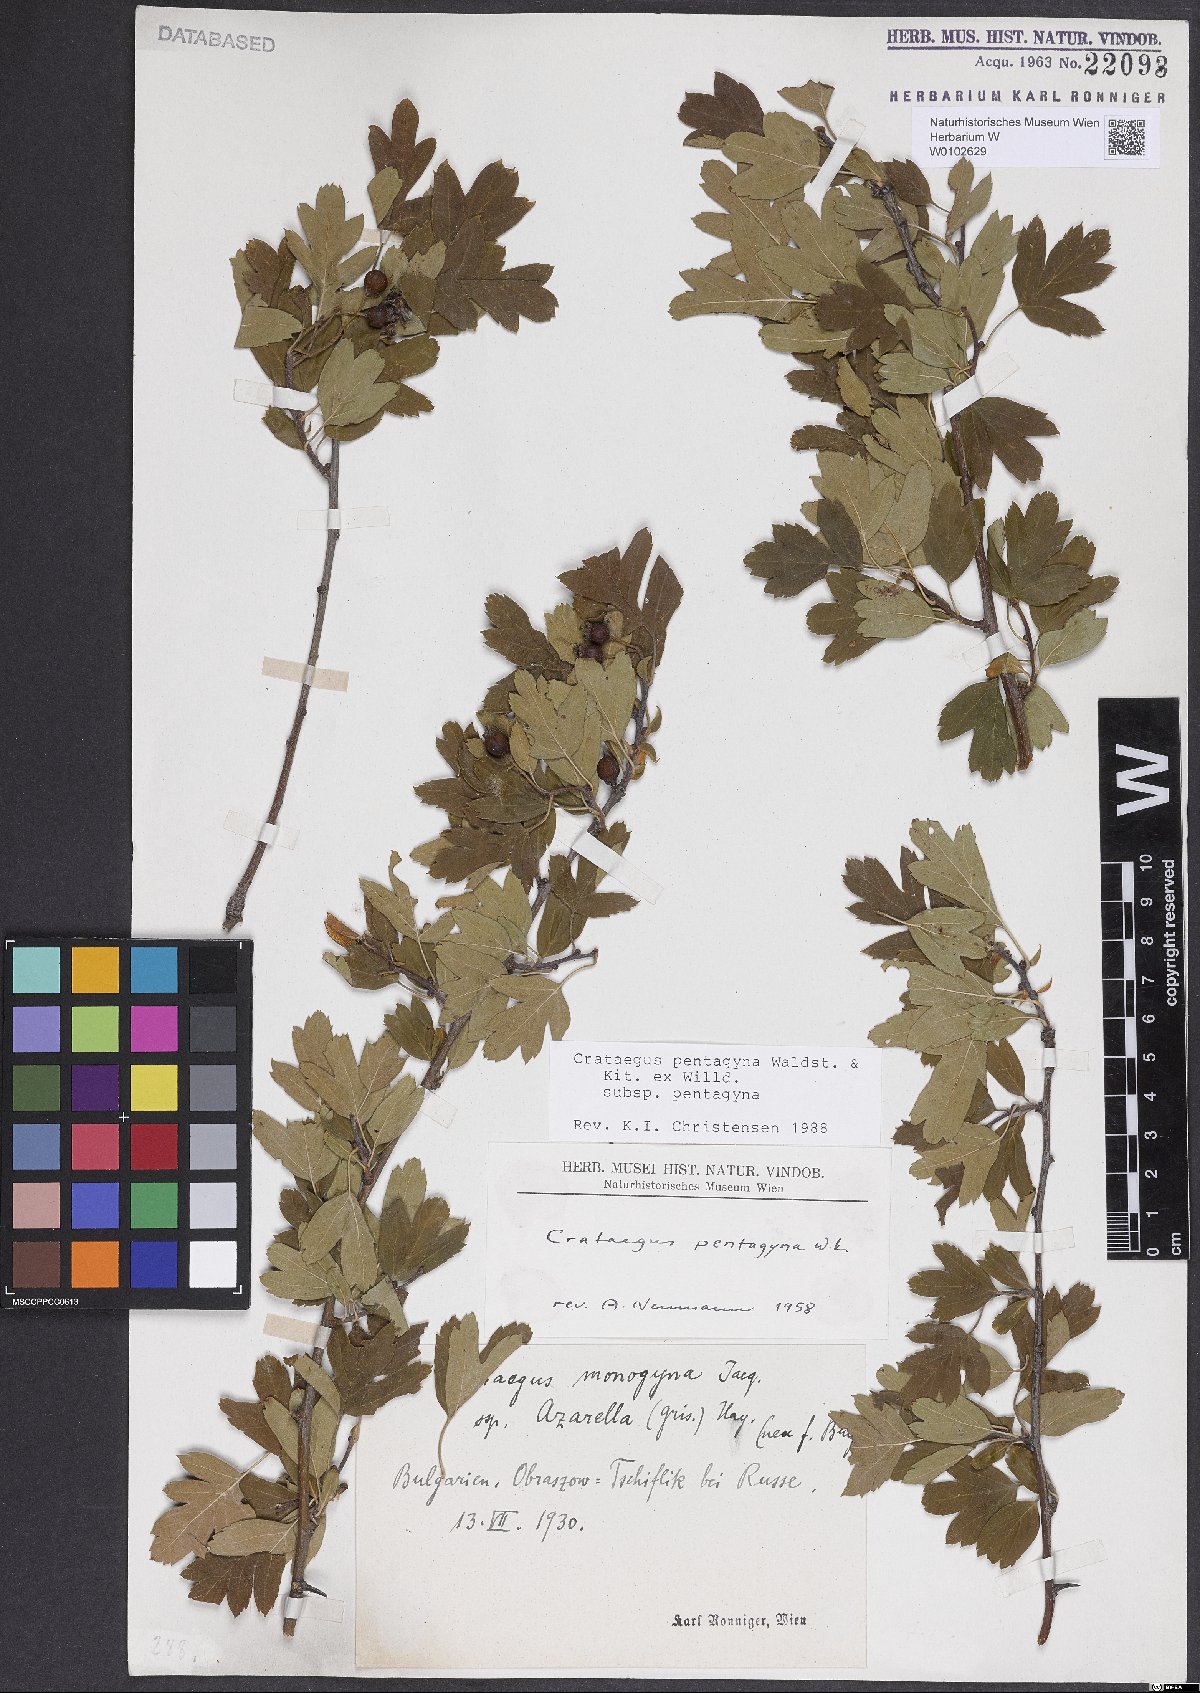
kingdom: Plantae
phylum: Tracheophyta
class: Magnoliopsida
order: Rosales
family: Rosaceae
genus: Crataegus
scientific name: Crataegus pentagyna
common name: Small-flowered black hawthorn
